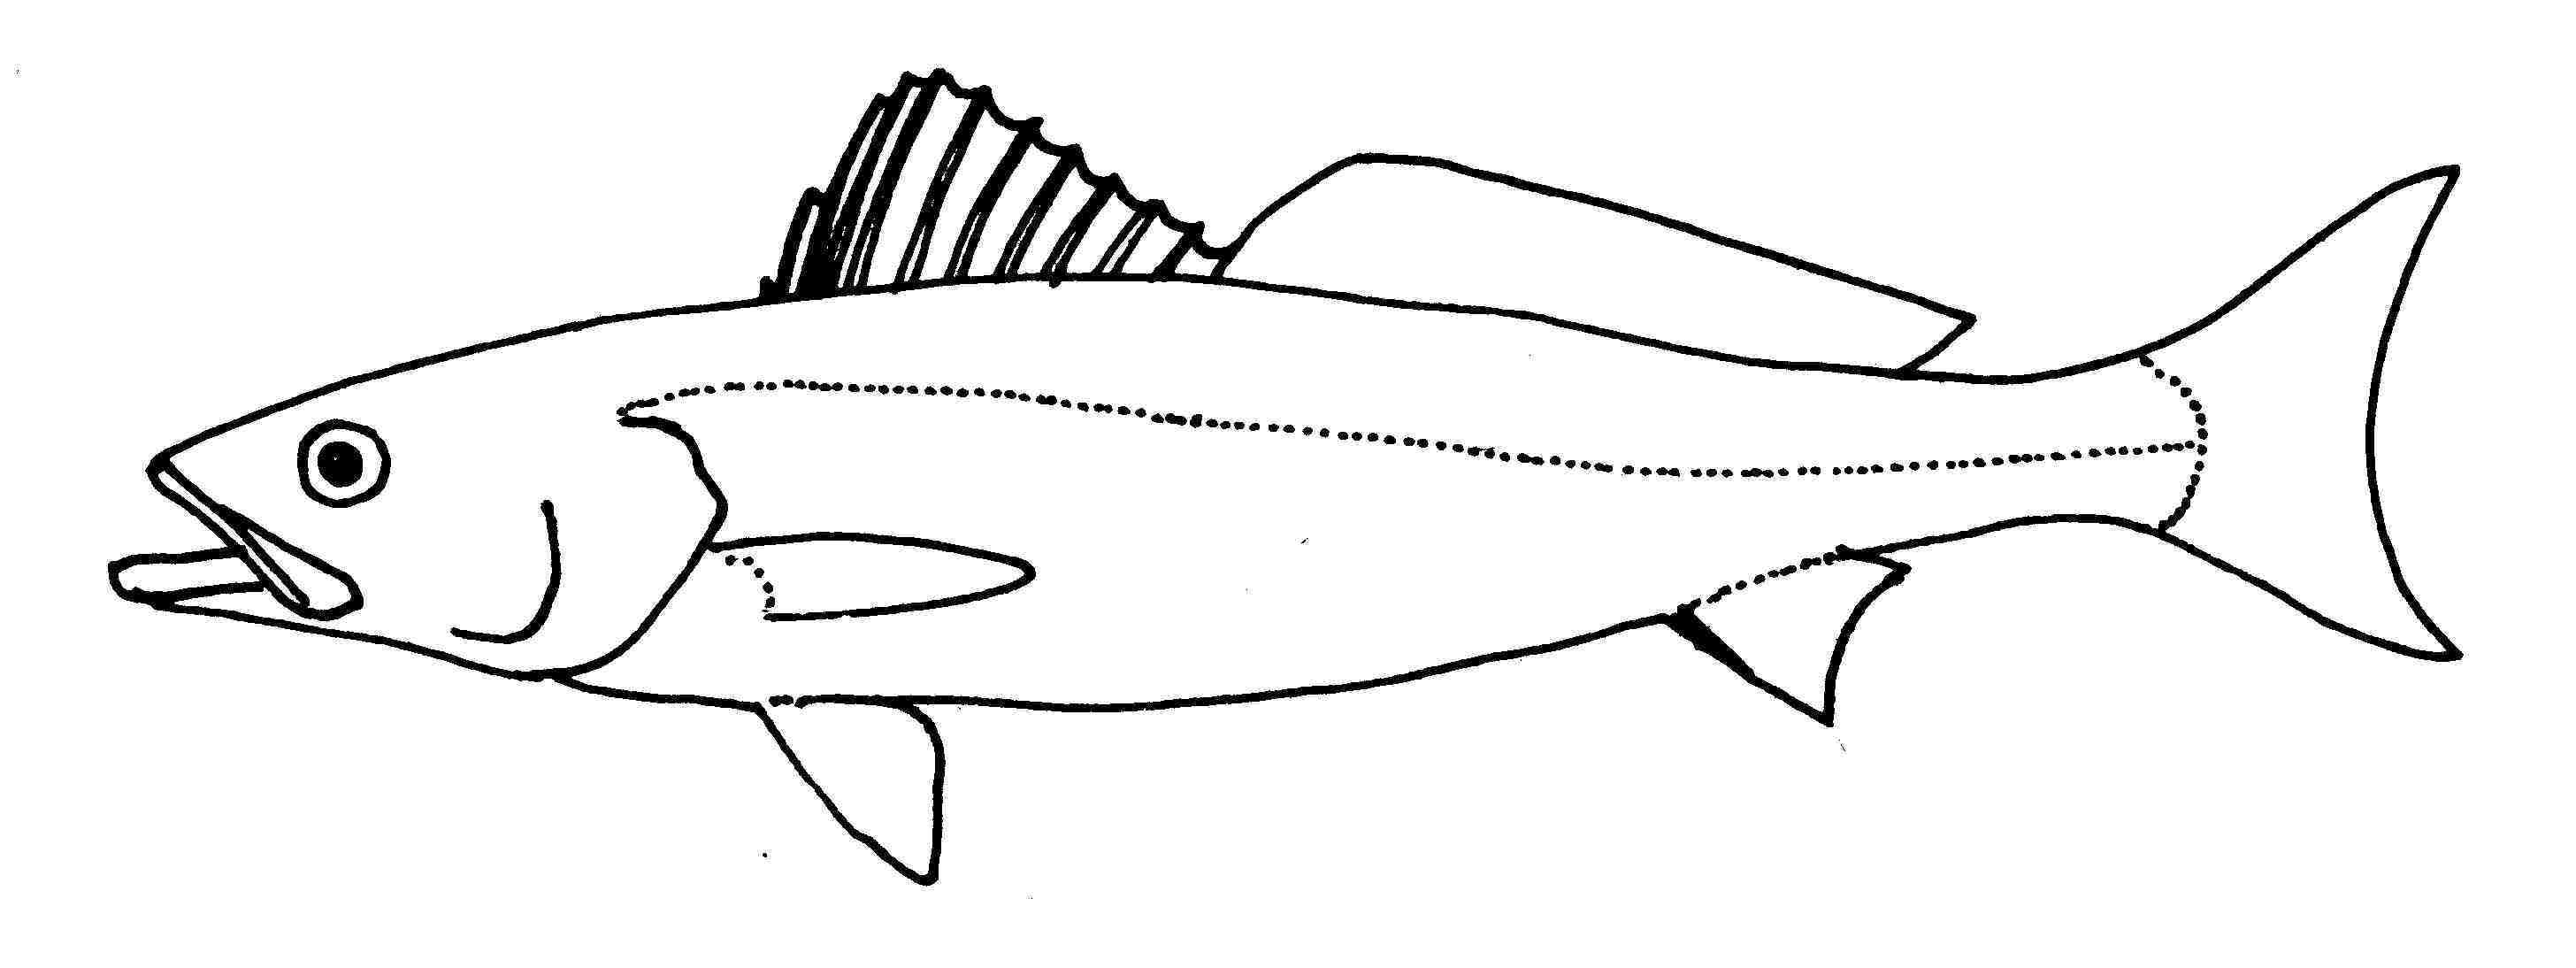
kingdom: Animalia
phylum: Chordata
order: Perciformes
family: Sciaenidae
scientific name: Sciaenidae
